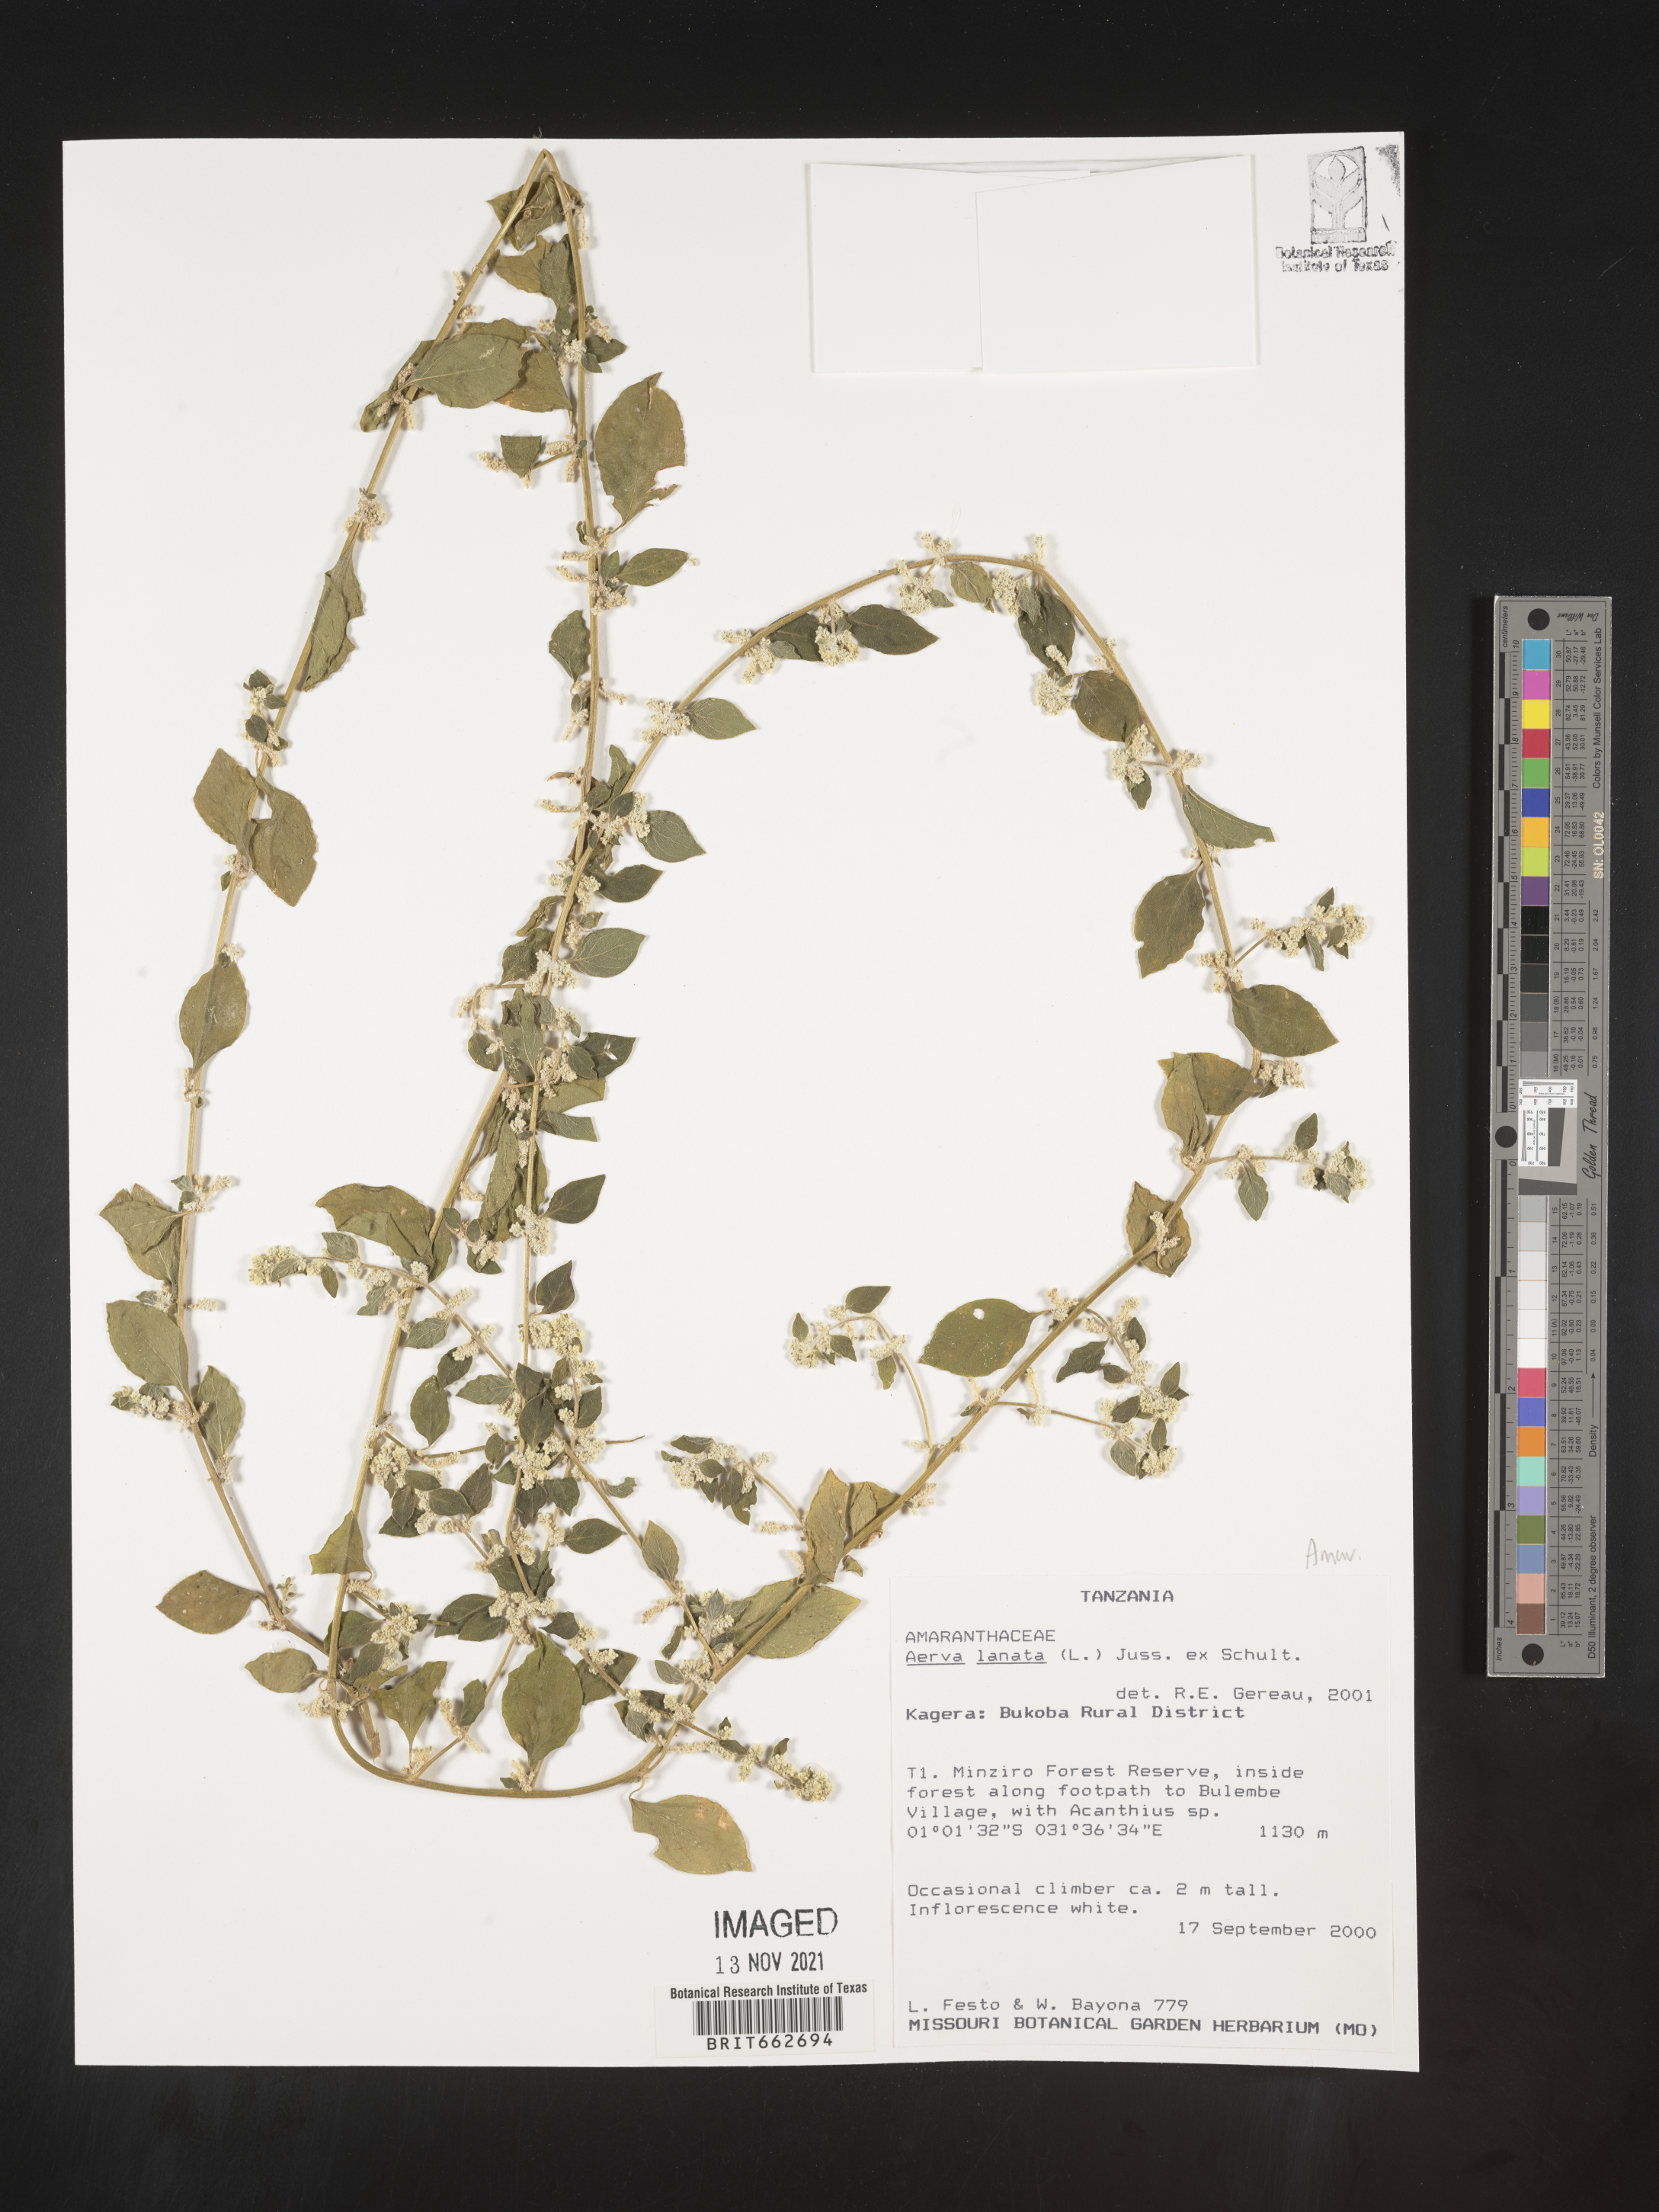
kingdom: Plantae
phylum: Tracheophyta
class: Magnoliopsida
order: Caryophyllales
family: Amaranthaceae
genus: Aerva
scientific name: Aerva
